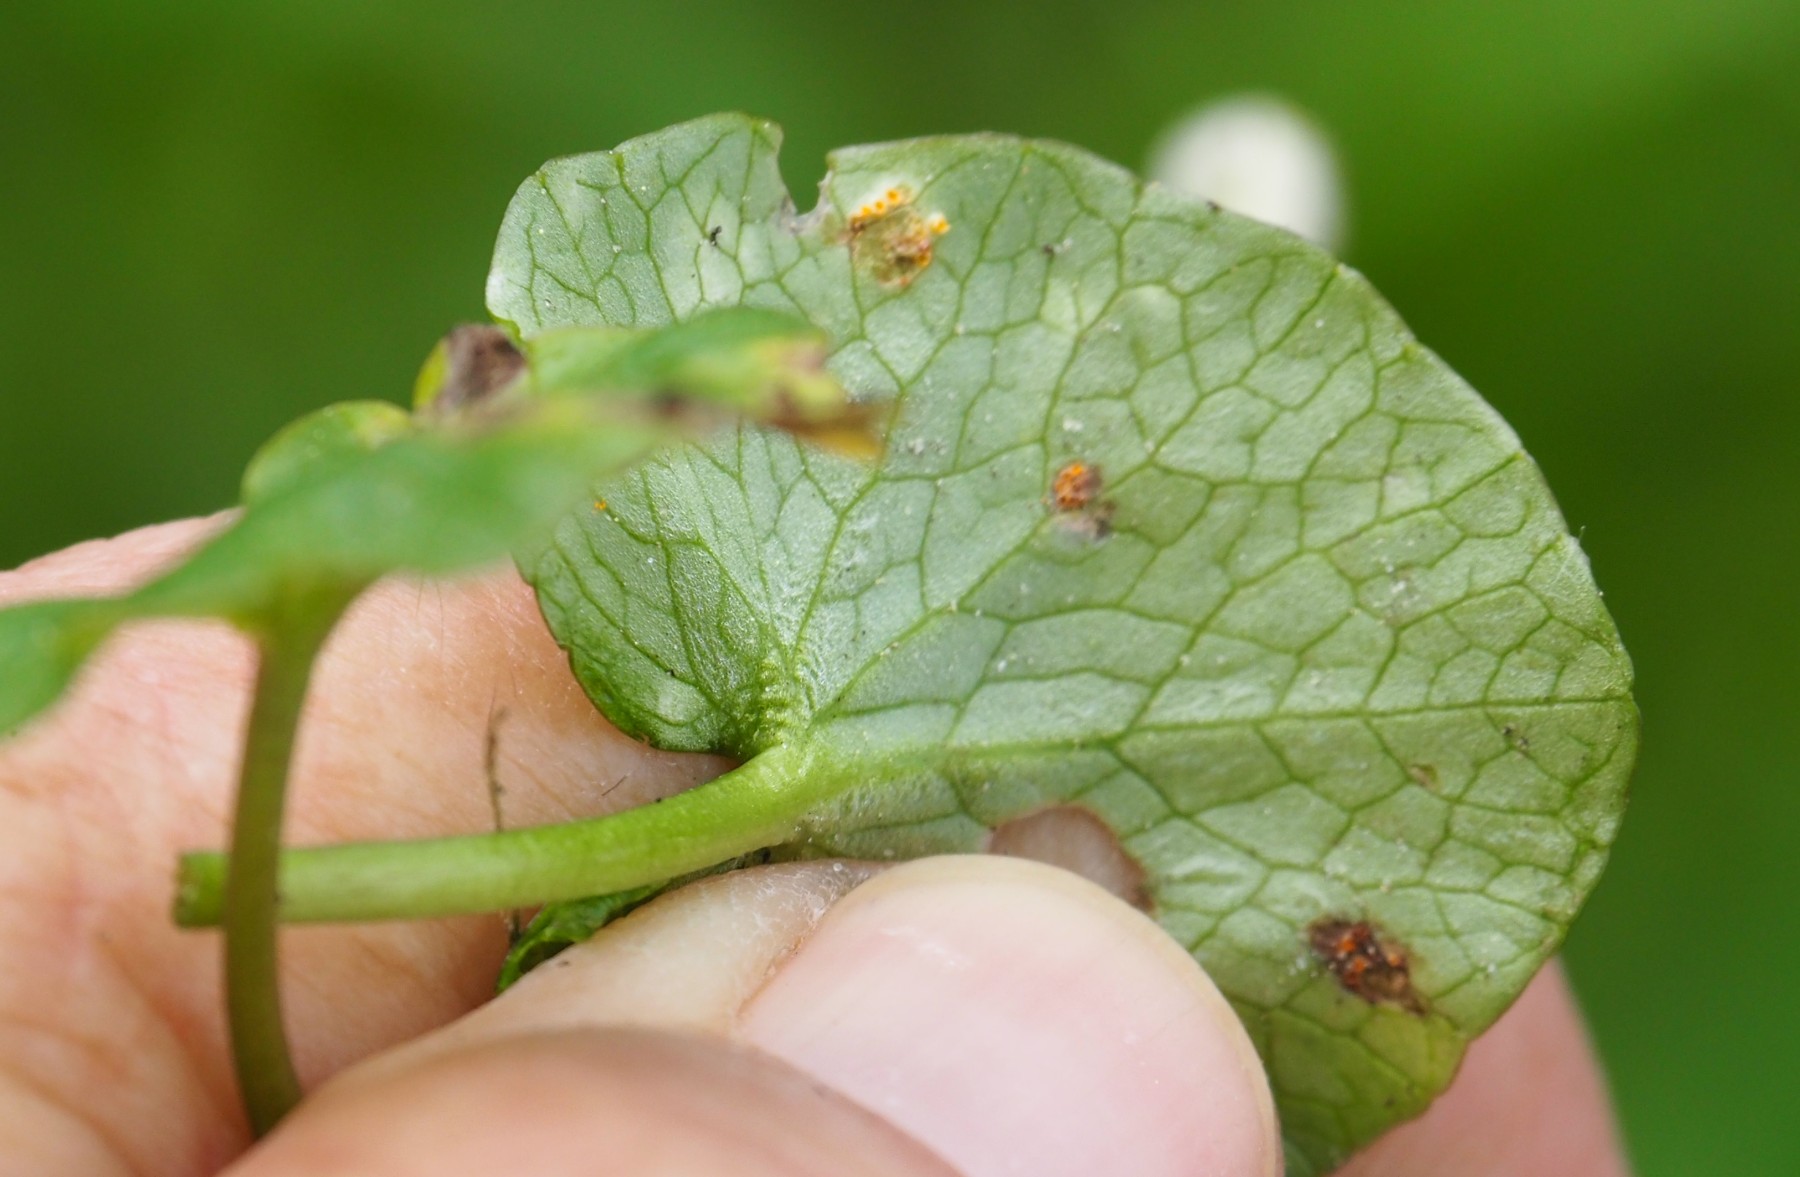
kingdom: Fungi
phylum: Basidiomycota
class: Pucciniomycetes
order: Pucciniales
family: Pucciniaceae
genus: Uromyces
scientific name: Uromyces dactylidis
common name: ranunkel-encellerust
